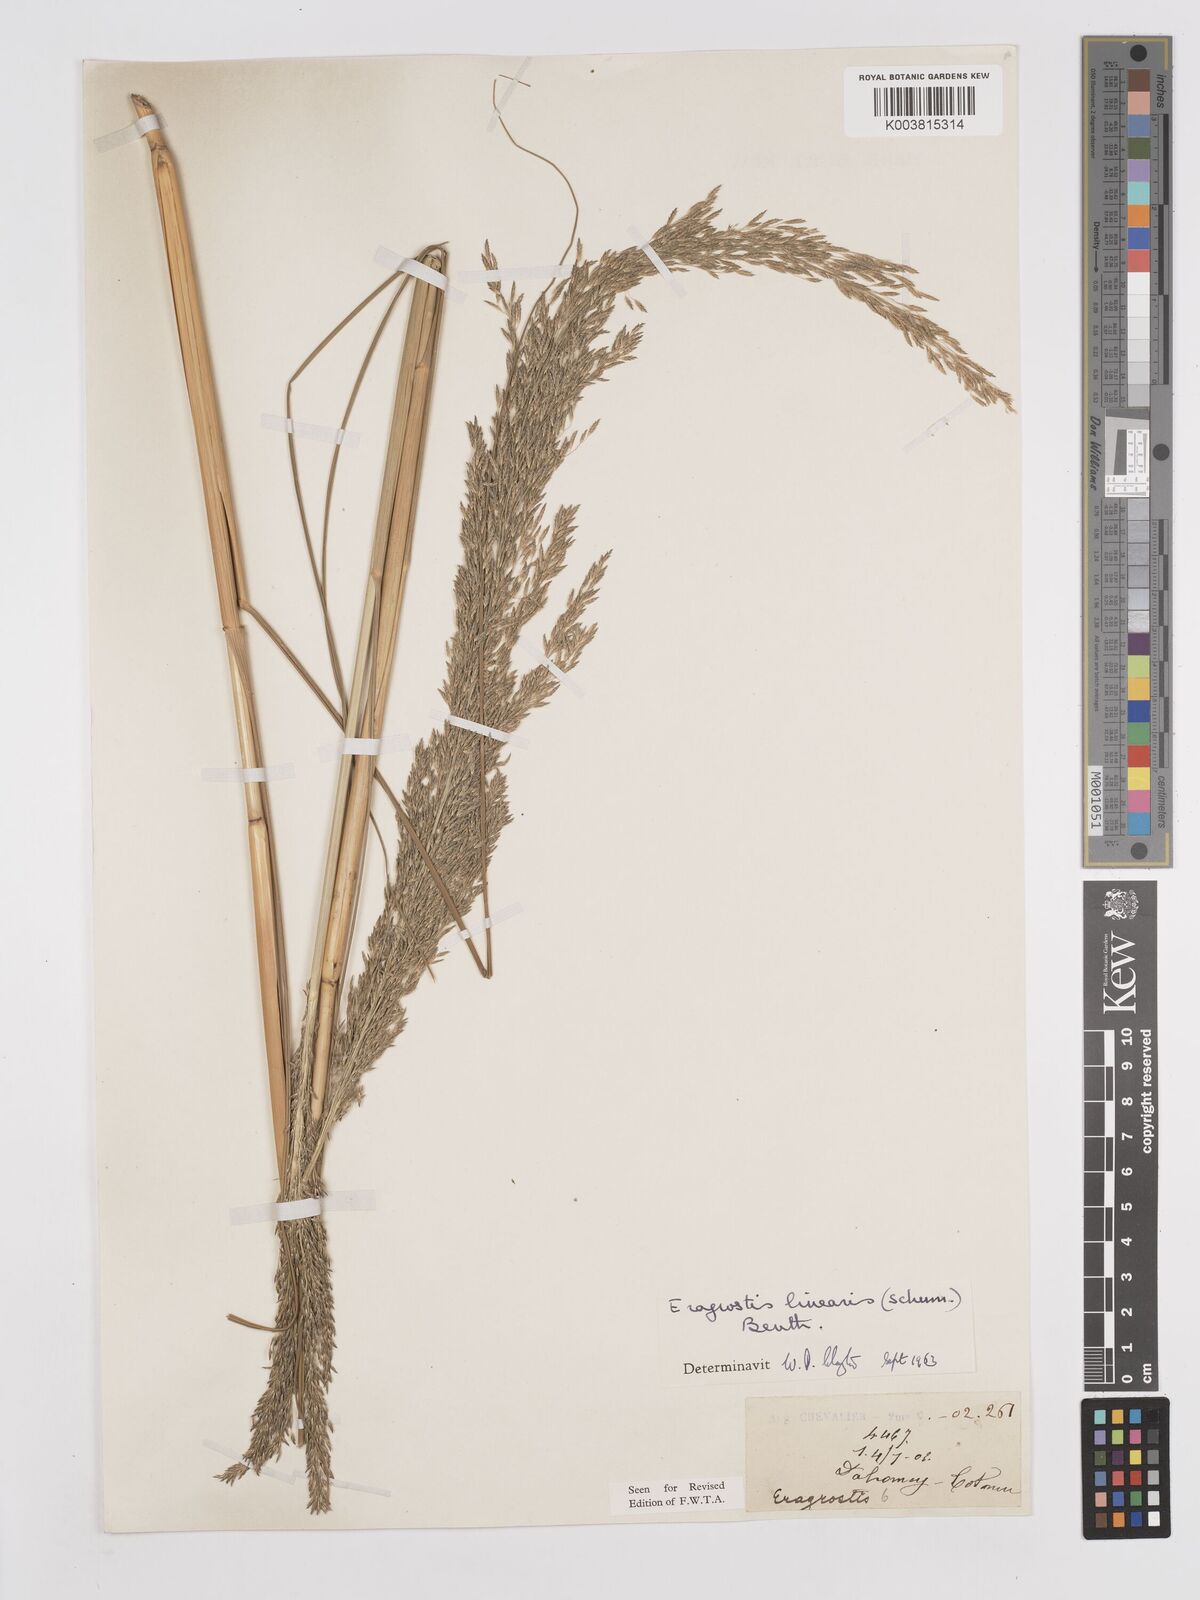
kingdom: Plantae
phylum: Tracheophyta
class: Liliopsida
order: Poales
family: Poaceae
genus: Eragrostis
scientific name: Eragrostis prolifera
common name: Dominican lovegrass
